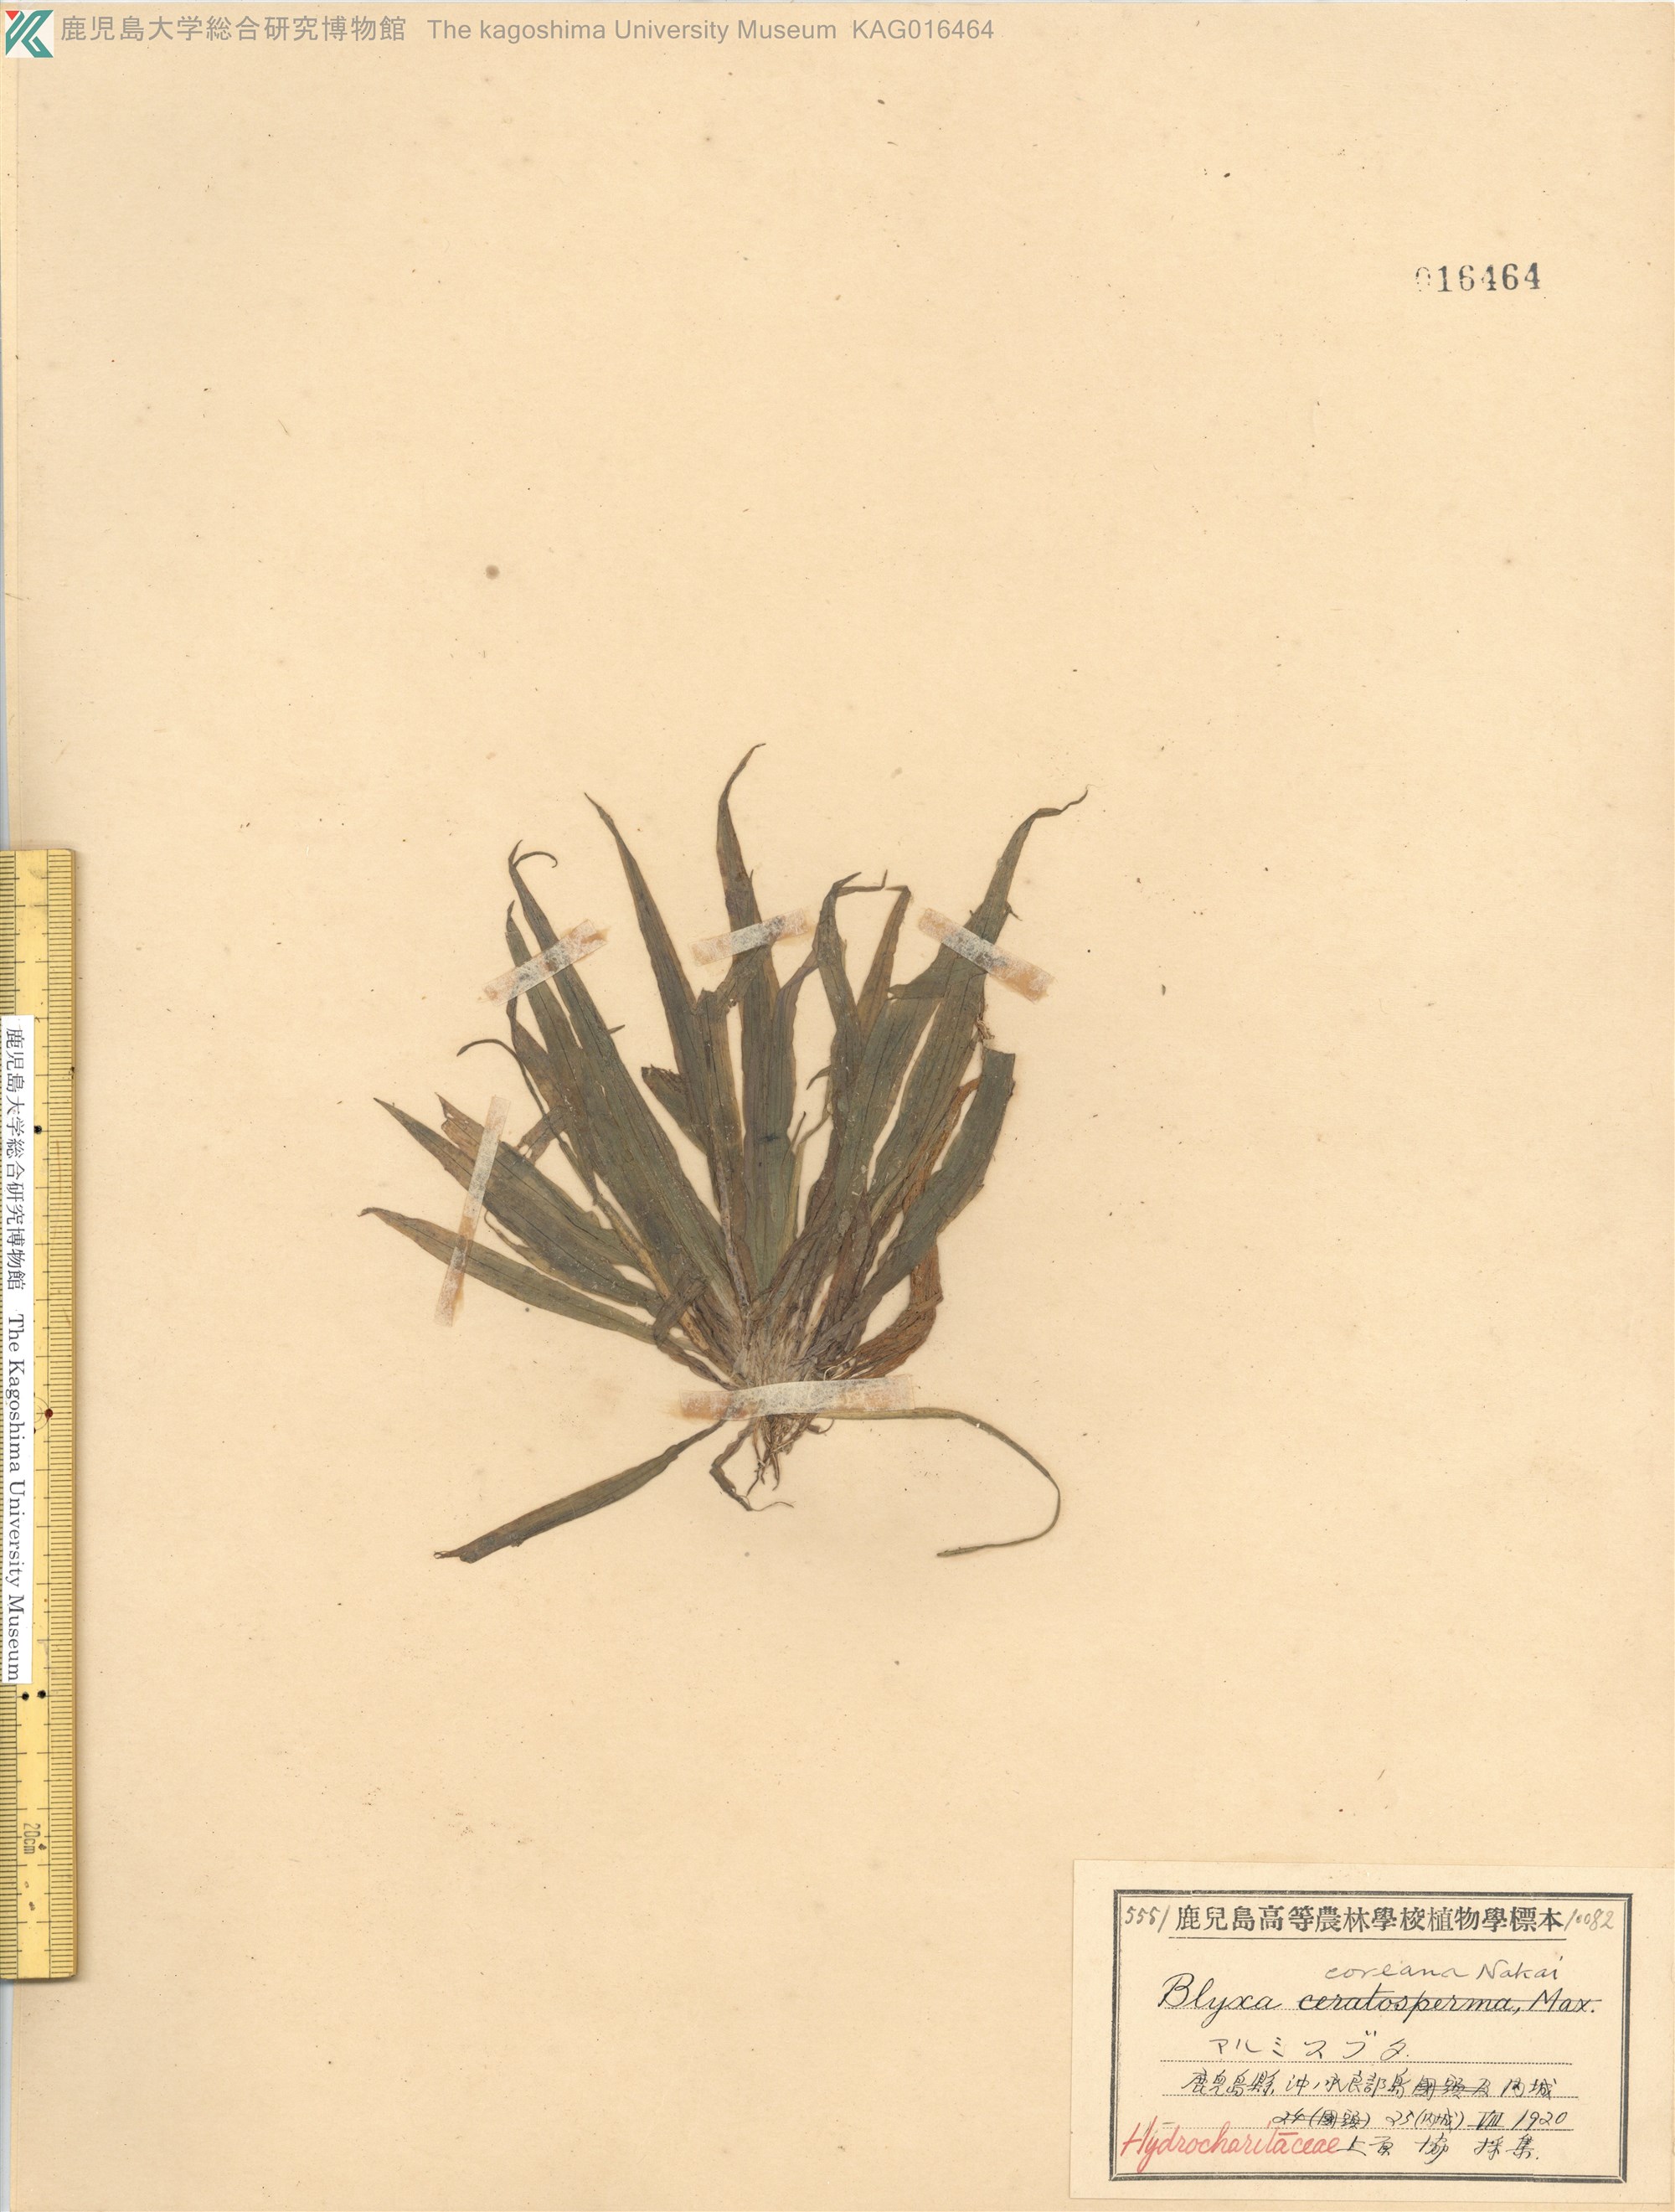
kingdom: Plantae
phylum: Tracheophyta
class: Liliopsida
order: Alismatales
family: Hydrocharitaceae
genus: Blyxa
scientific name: Blyxa aubertii
